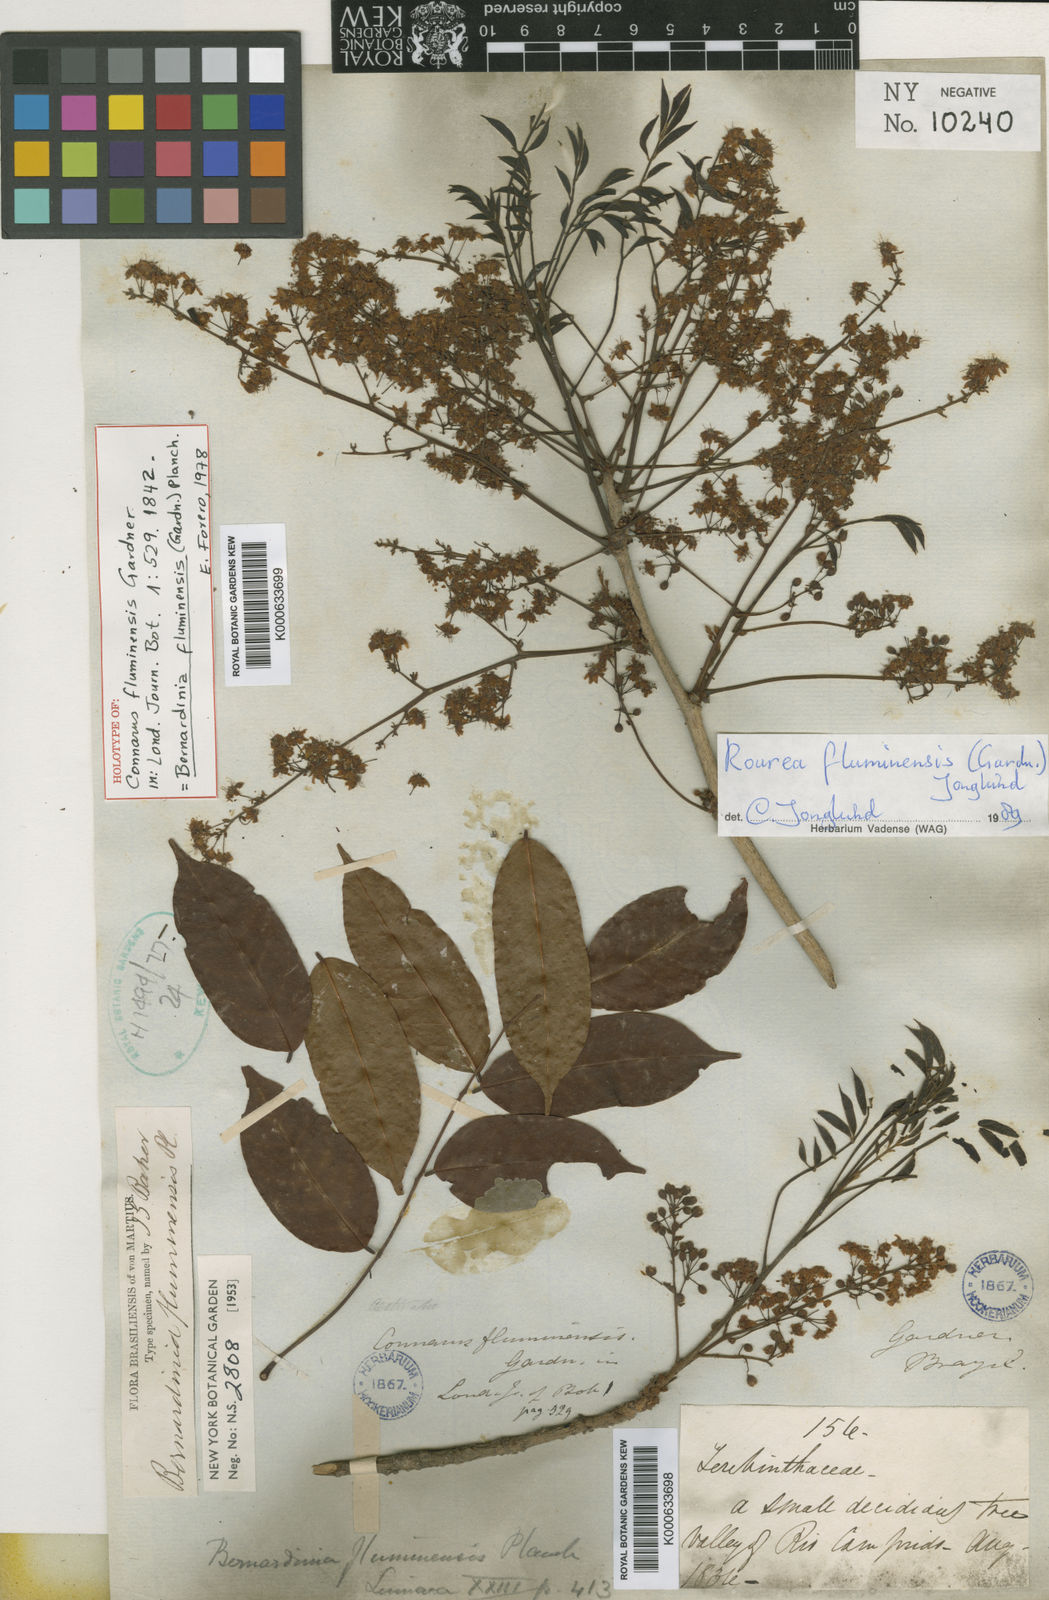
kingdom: Plantae
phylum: Tracheophyta
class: Magnoliopsida
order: Oxalidales
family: Connaraceae
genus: Rourea
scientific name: Rourea fluminensis
